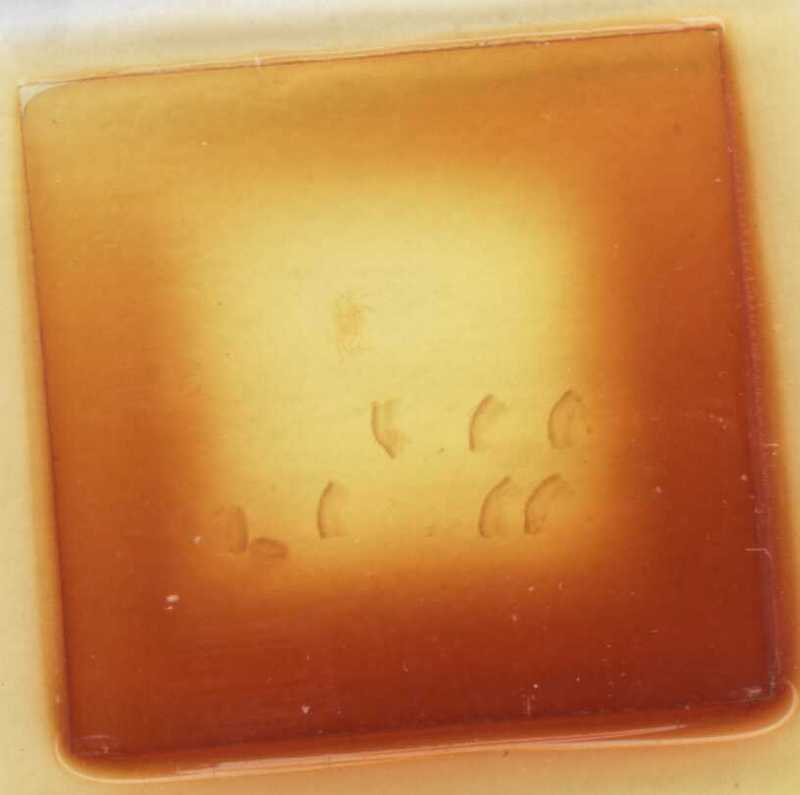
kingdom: Animalia
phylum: Arthropoda
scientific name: Arthropoda
